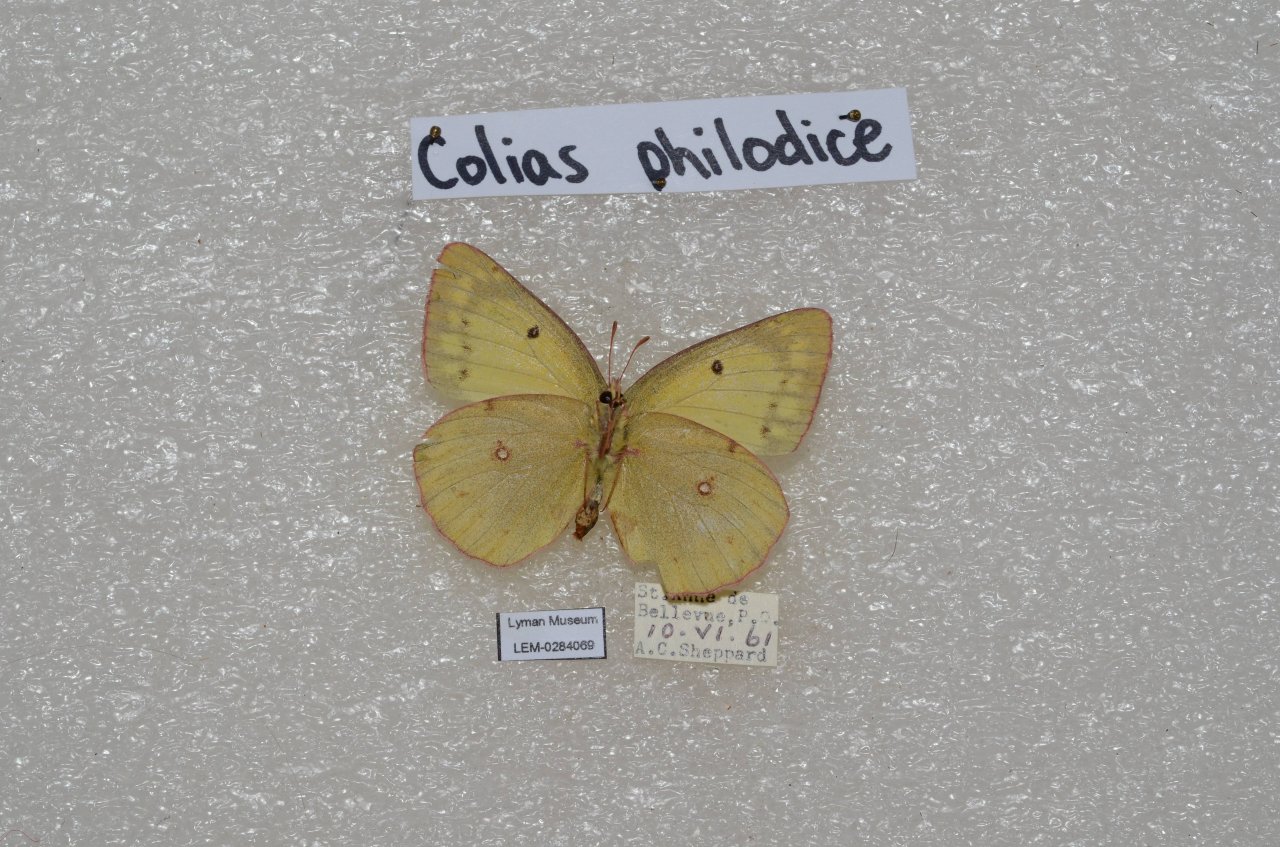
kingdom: Animalia
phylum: Arthropoda
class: Insecta
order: Lepidoptera
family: Pieridae
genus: Colias
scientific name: Colias philodice
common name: Clouded Sulphur
